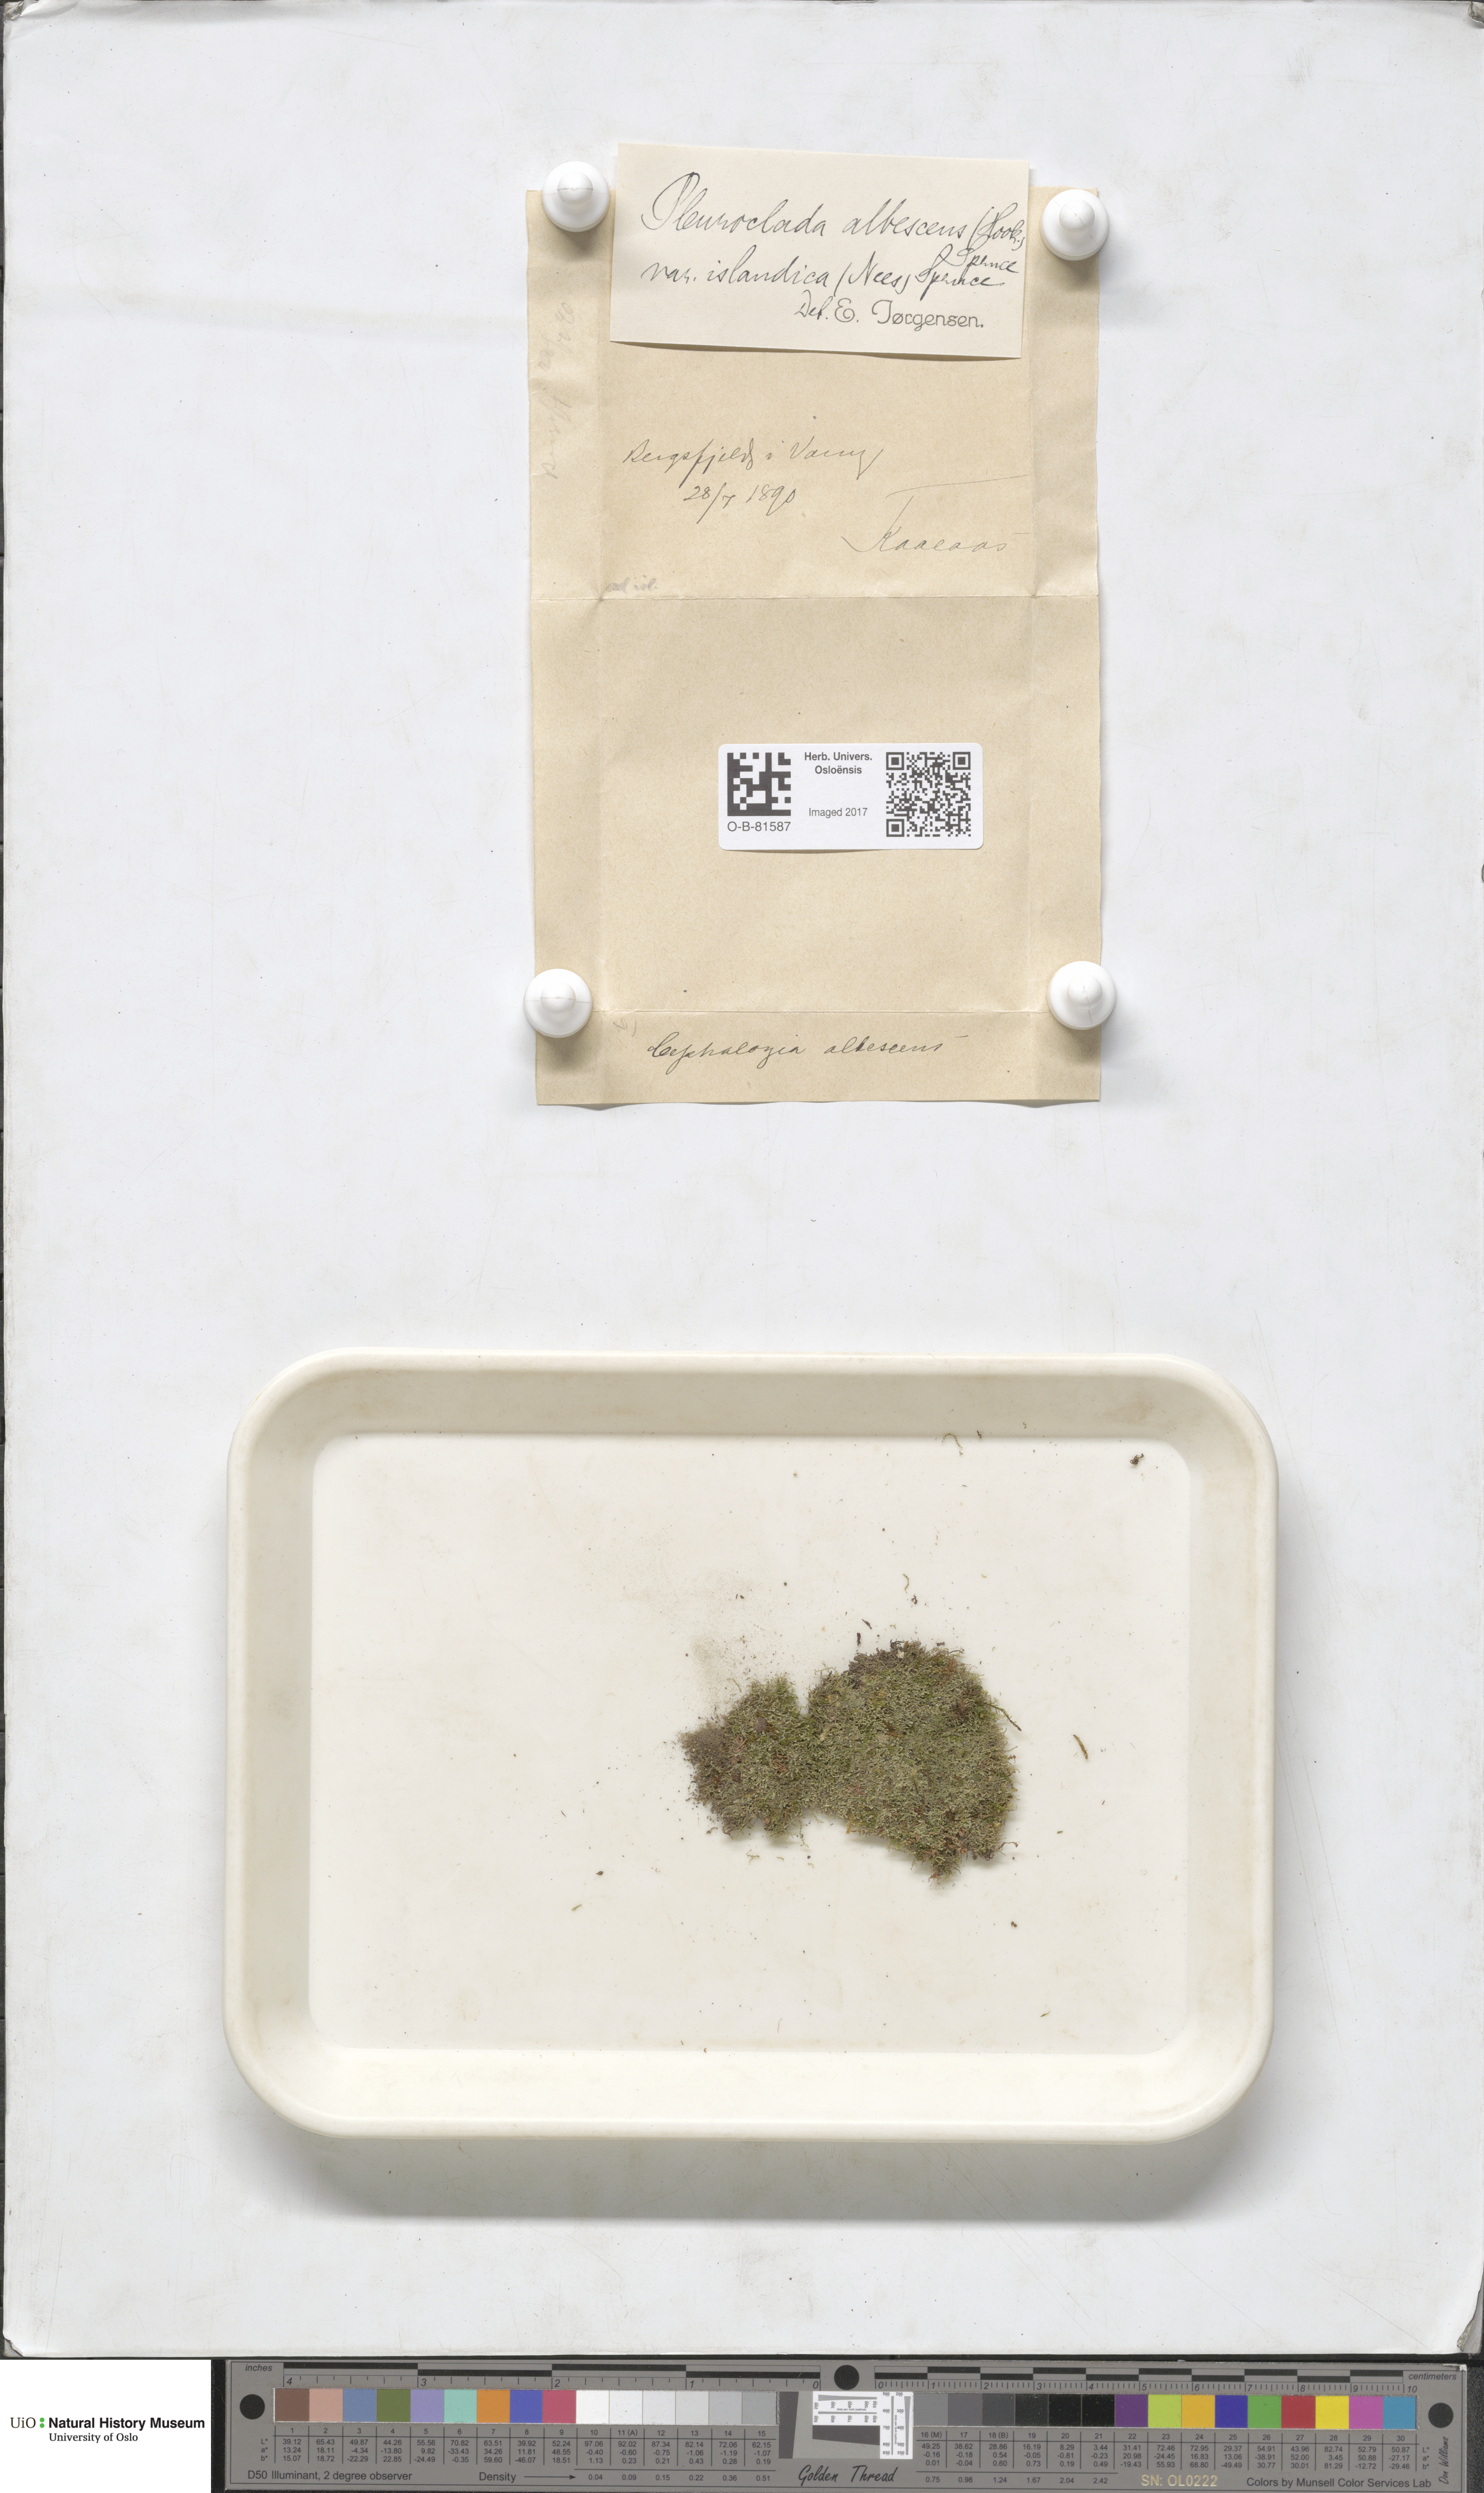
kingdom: Plantae
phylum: Marchantiophyta
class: Jungermanniopsida
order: Jungermanniales
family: Cephaloziaceae
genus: Fuscocephaloziopsis
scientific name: Fuscocephaloziopsis albescens
